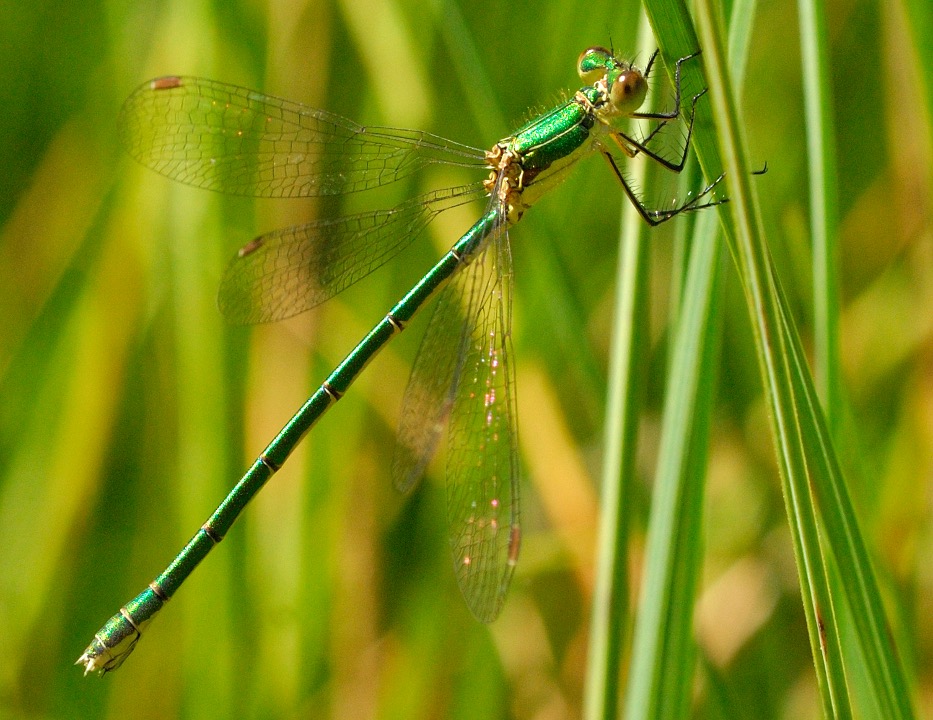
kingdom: Animalia
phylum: Arthropoda
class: Insecta
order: Odonata
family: Lestidae
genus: Lestes
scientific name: Lestes virens
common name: Lille kobbervandnymfe
